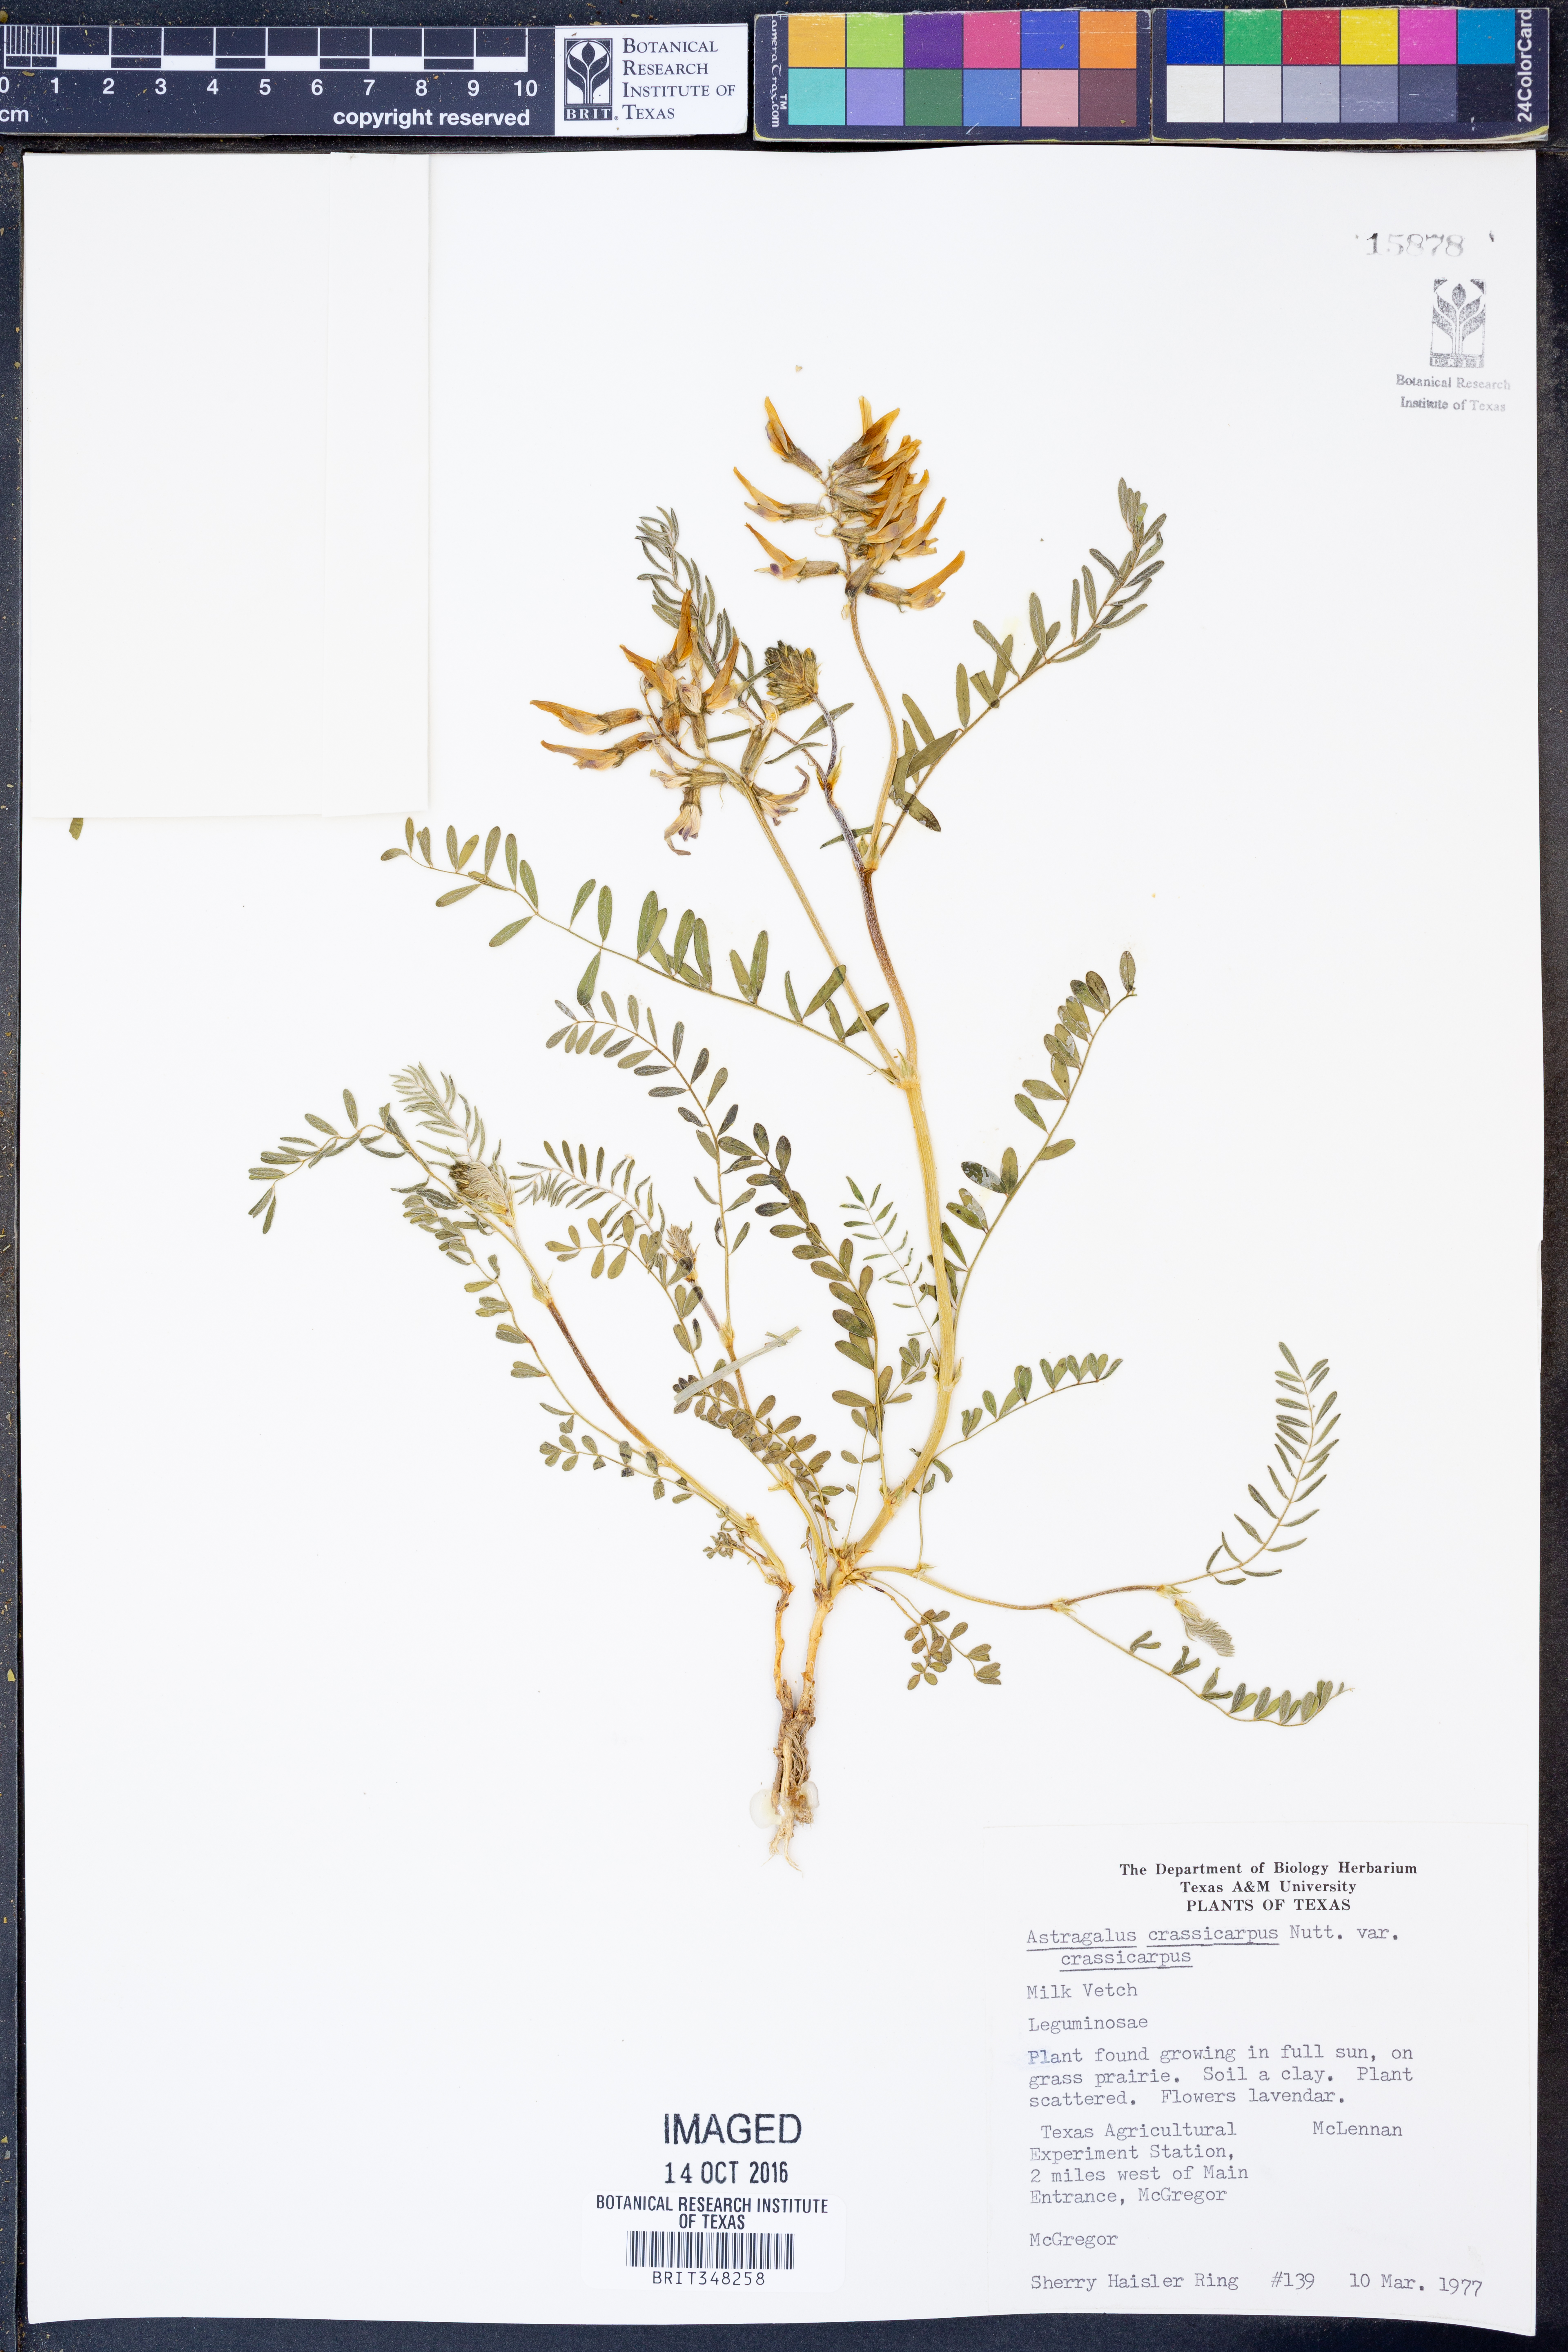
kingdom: Plantae
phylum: Tracheophyta
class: Magnoliopsida
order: Fabales
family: Fabaceae
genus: Astragalus
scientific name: Astragalus crassicarpus
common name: Ground-plum milk-vetch
